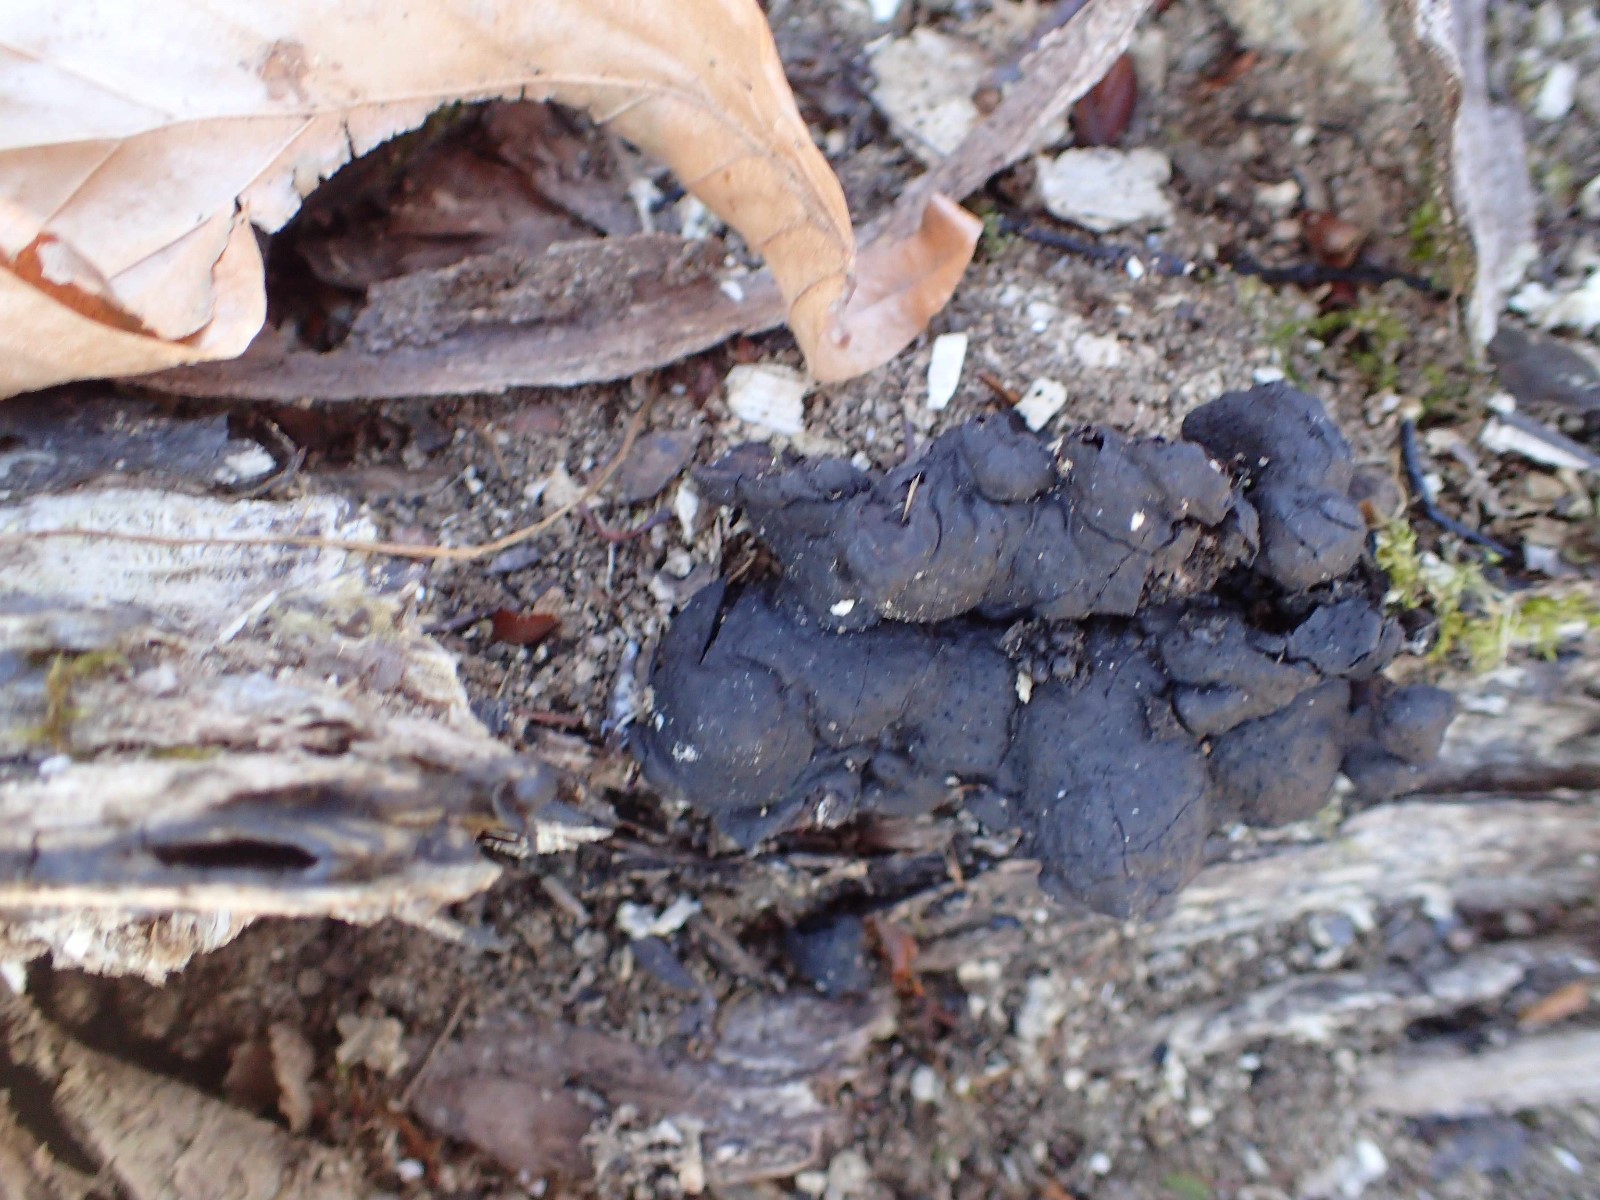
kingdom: Fungi
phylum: Ascomycota
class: Sordariomycetes
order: Xylariales
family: Xylariaceae
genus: Kretzschmaria
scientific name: Kretzschmaria deusta
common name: stor kulsvamp
